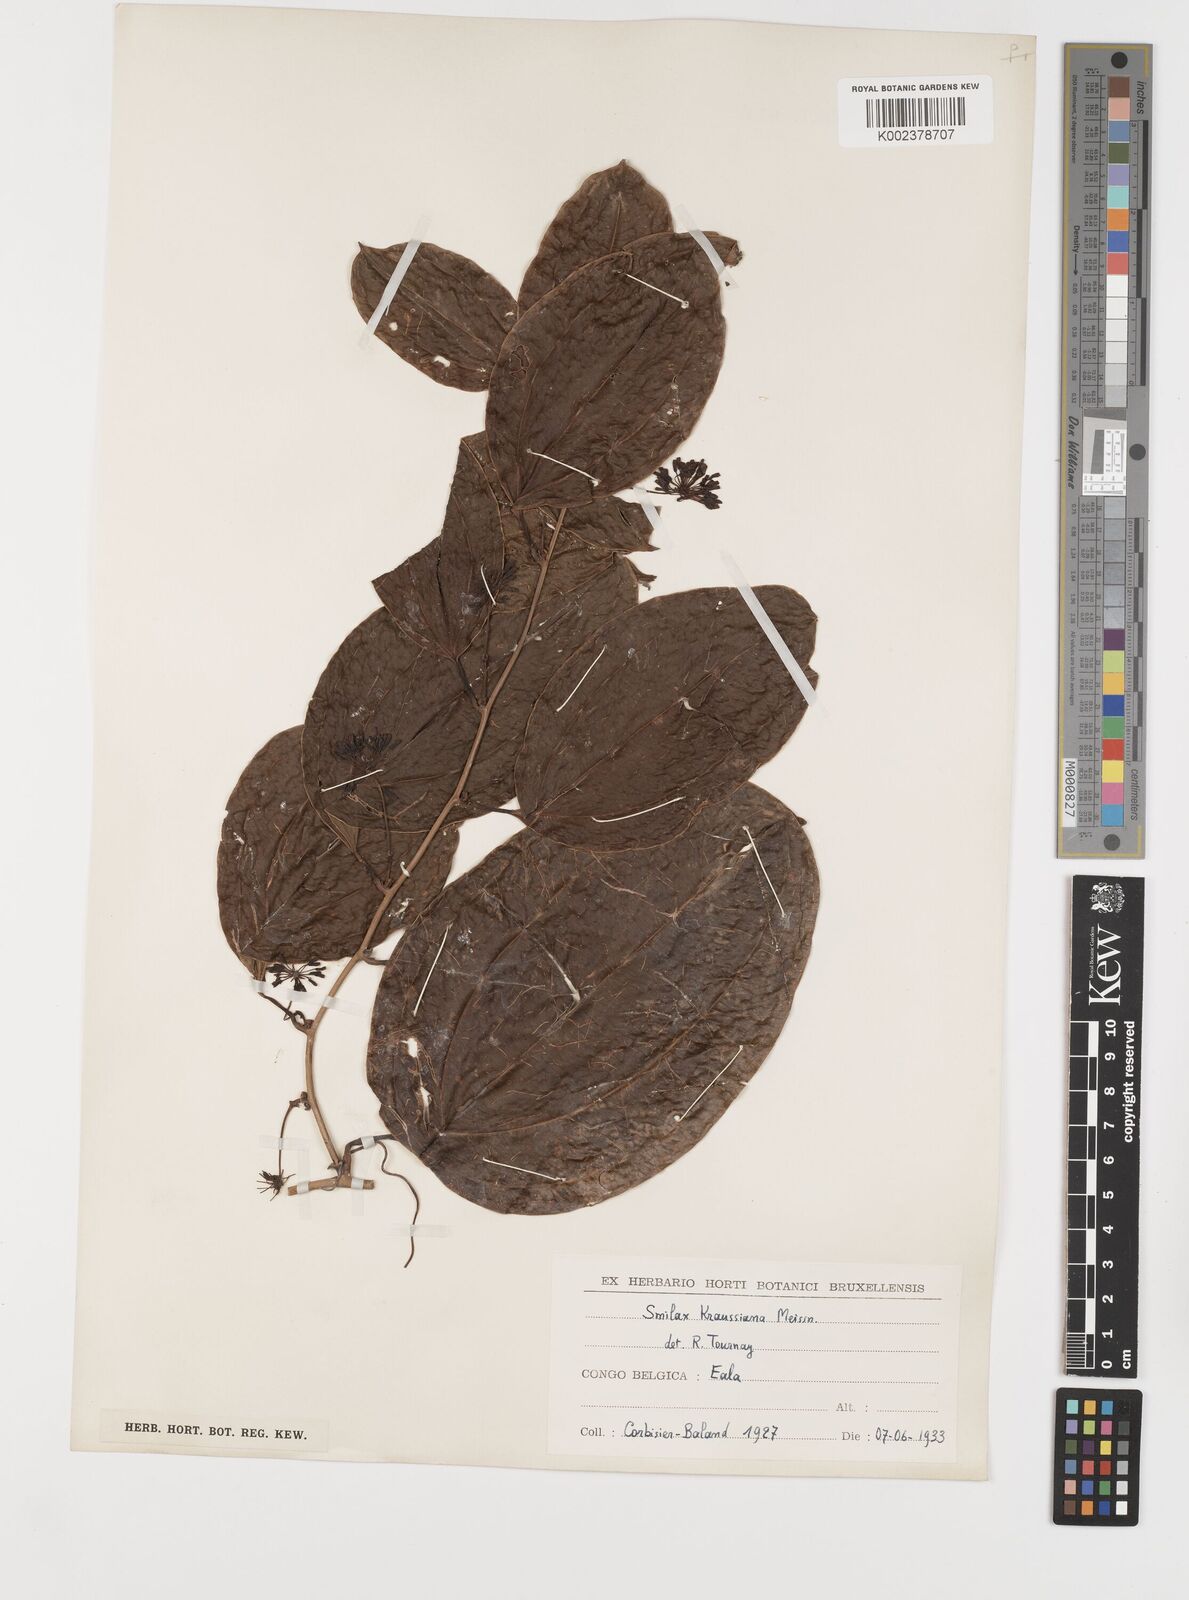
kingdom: Plantae
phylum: Tracheophyta
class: Liliopsida
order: Liliales
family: Smilacaceae
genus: Smilax
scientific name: Smilax anceps
